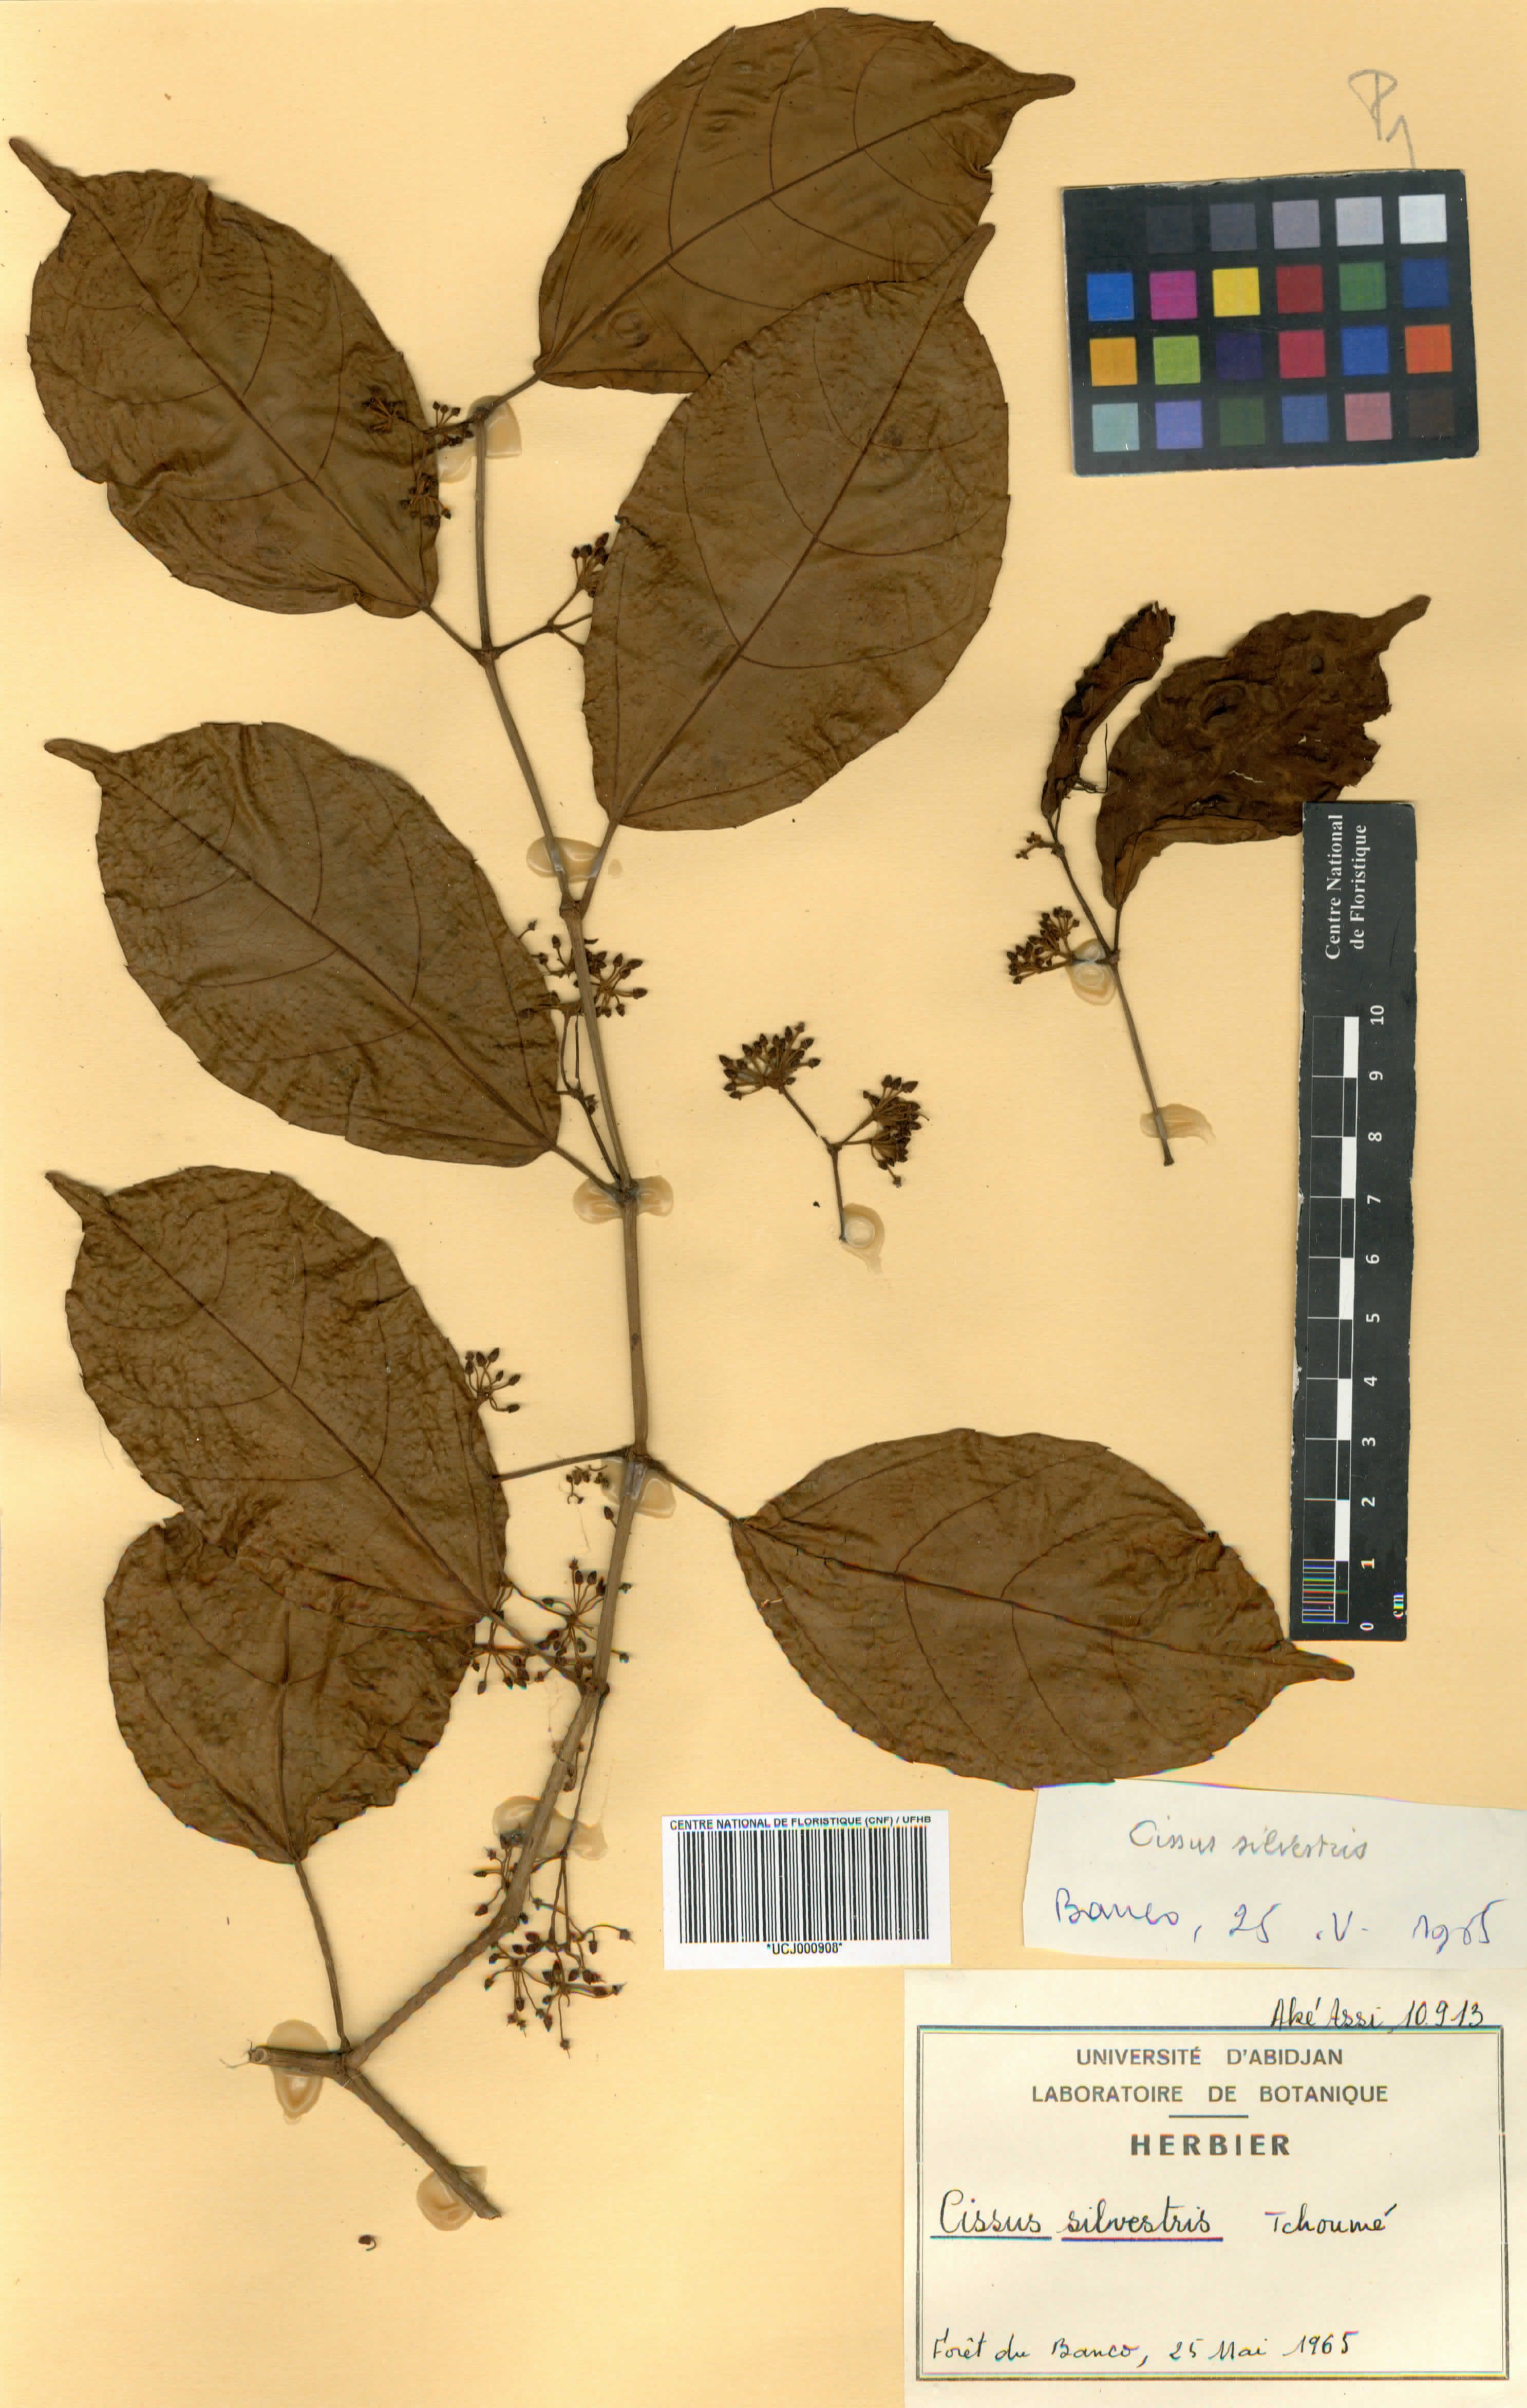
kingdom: Plantae
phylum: Tracheophyta
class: Magnoliopsida
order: Vitales
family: Vitaceae
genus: Cissus
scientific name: Cissus silvestris
